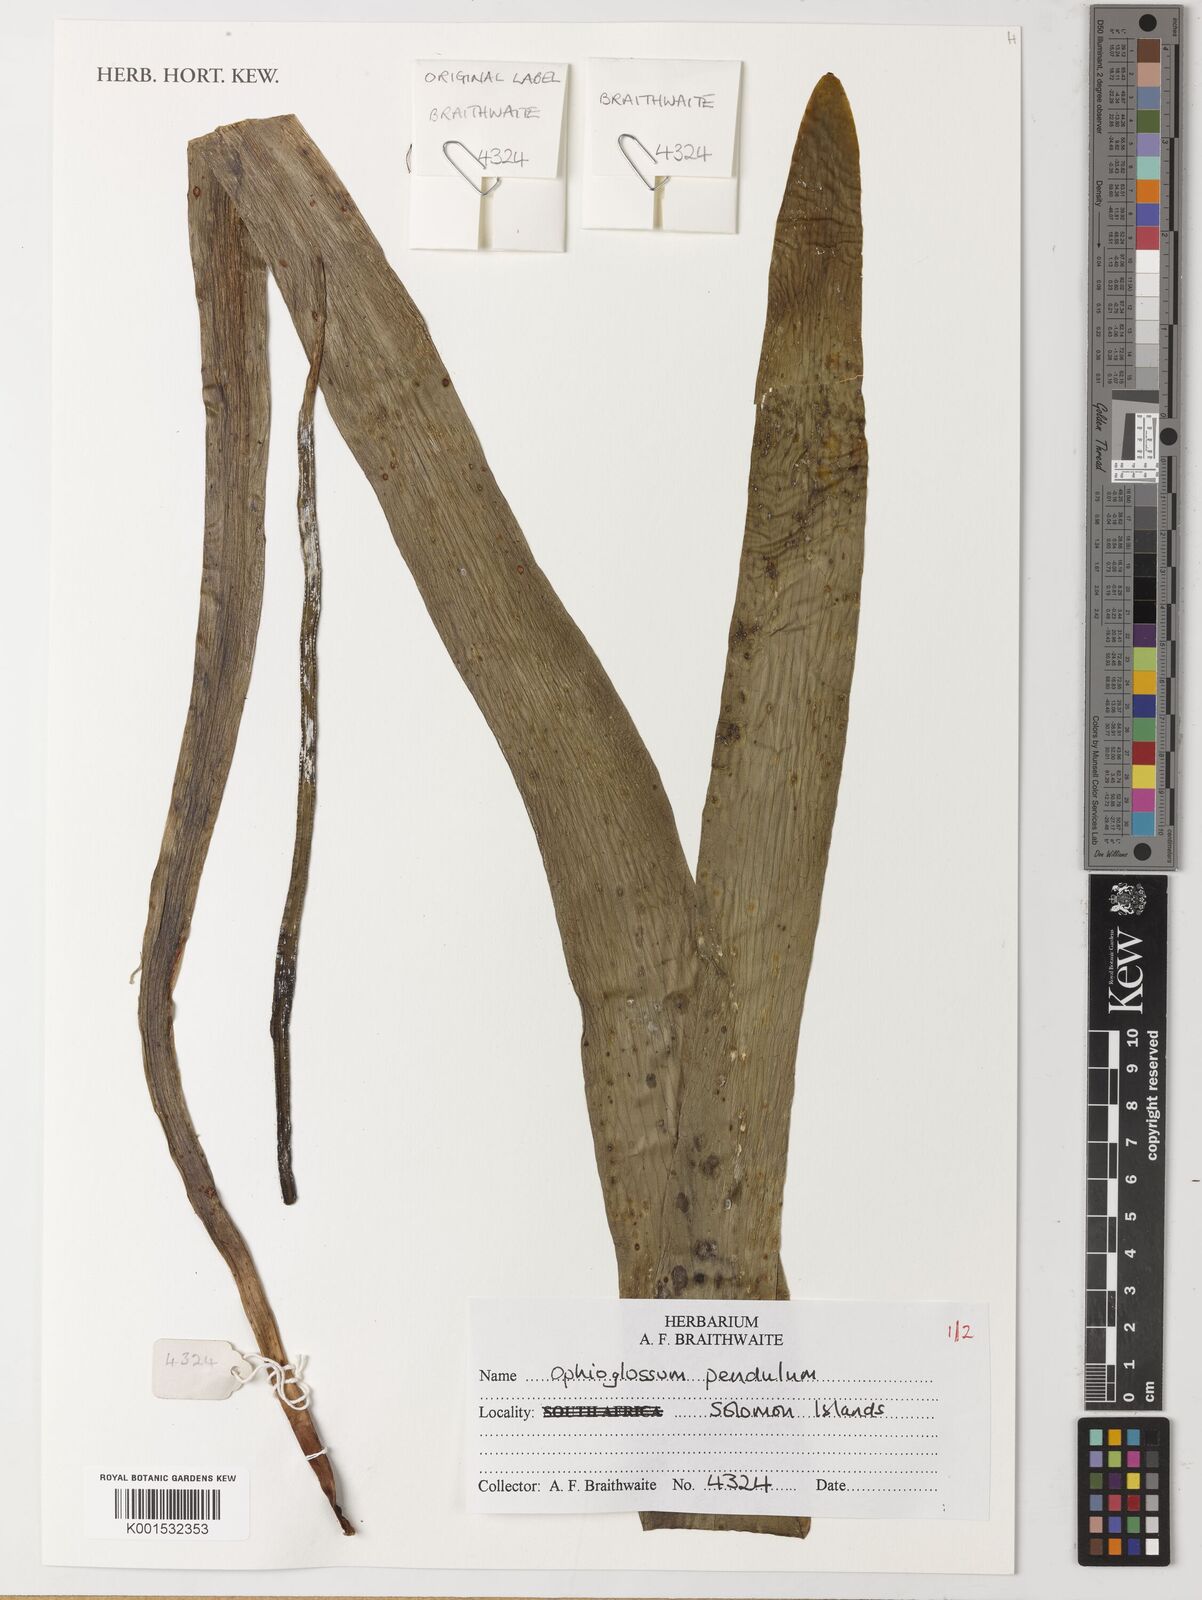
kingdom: Plantae
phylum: Tracheophyta
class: Polypodiopsida
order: Ophioglossales
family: Ophioglossaceae
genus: Ophioderma
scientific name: Ophioderma pendulum
